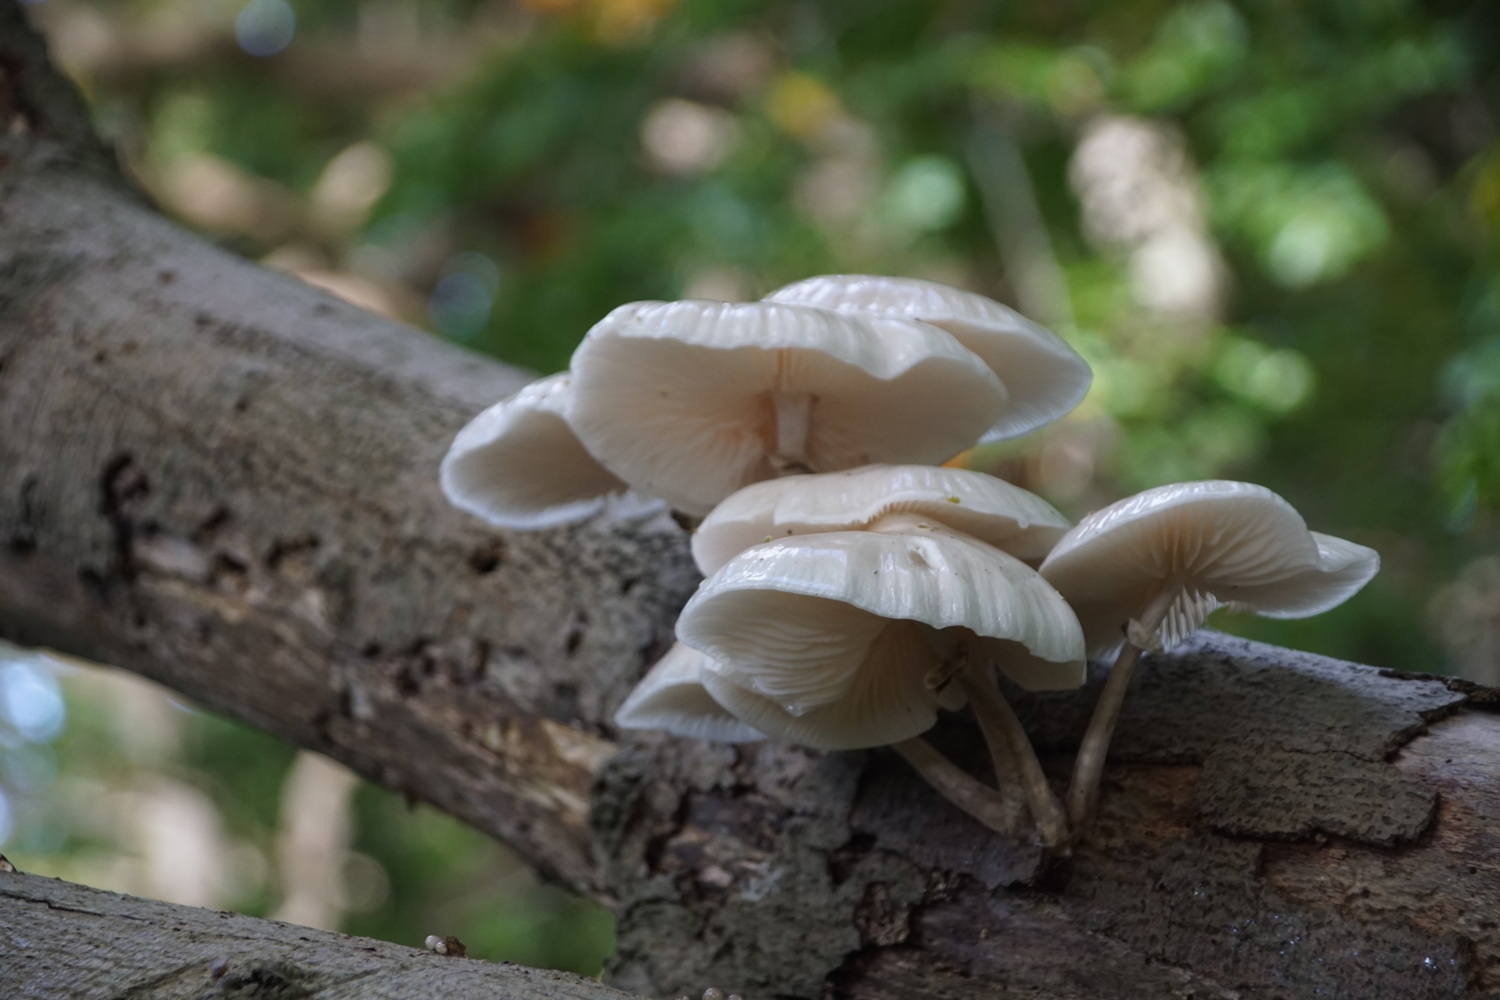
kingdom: Fungi
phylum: Basidiomycota
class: Agaricomycetes
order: Agaricales
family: Physalacriaceae
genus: Mucidula
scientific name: Mucidula mucida
